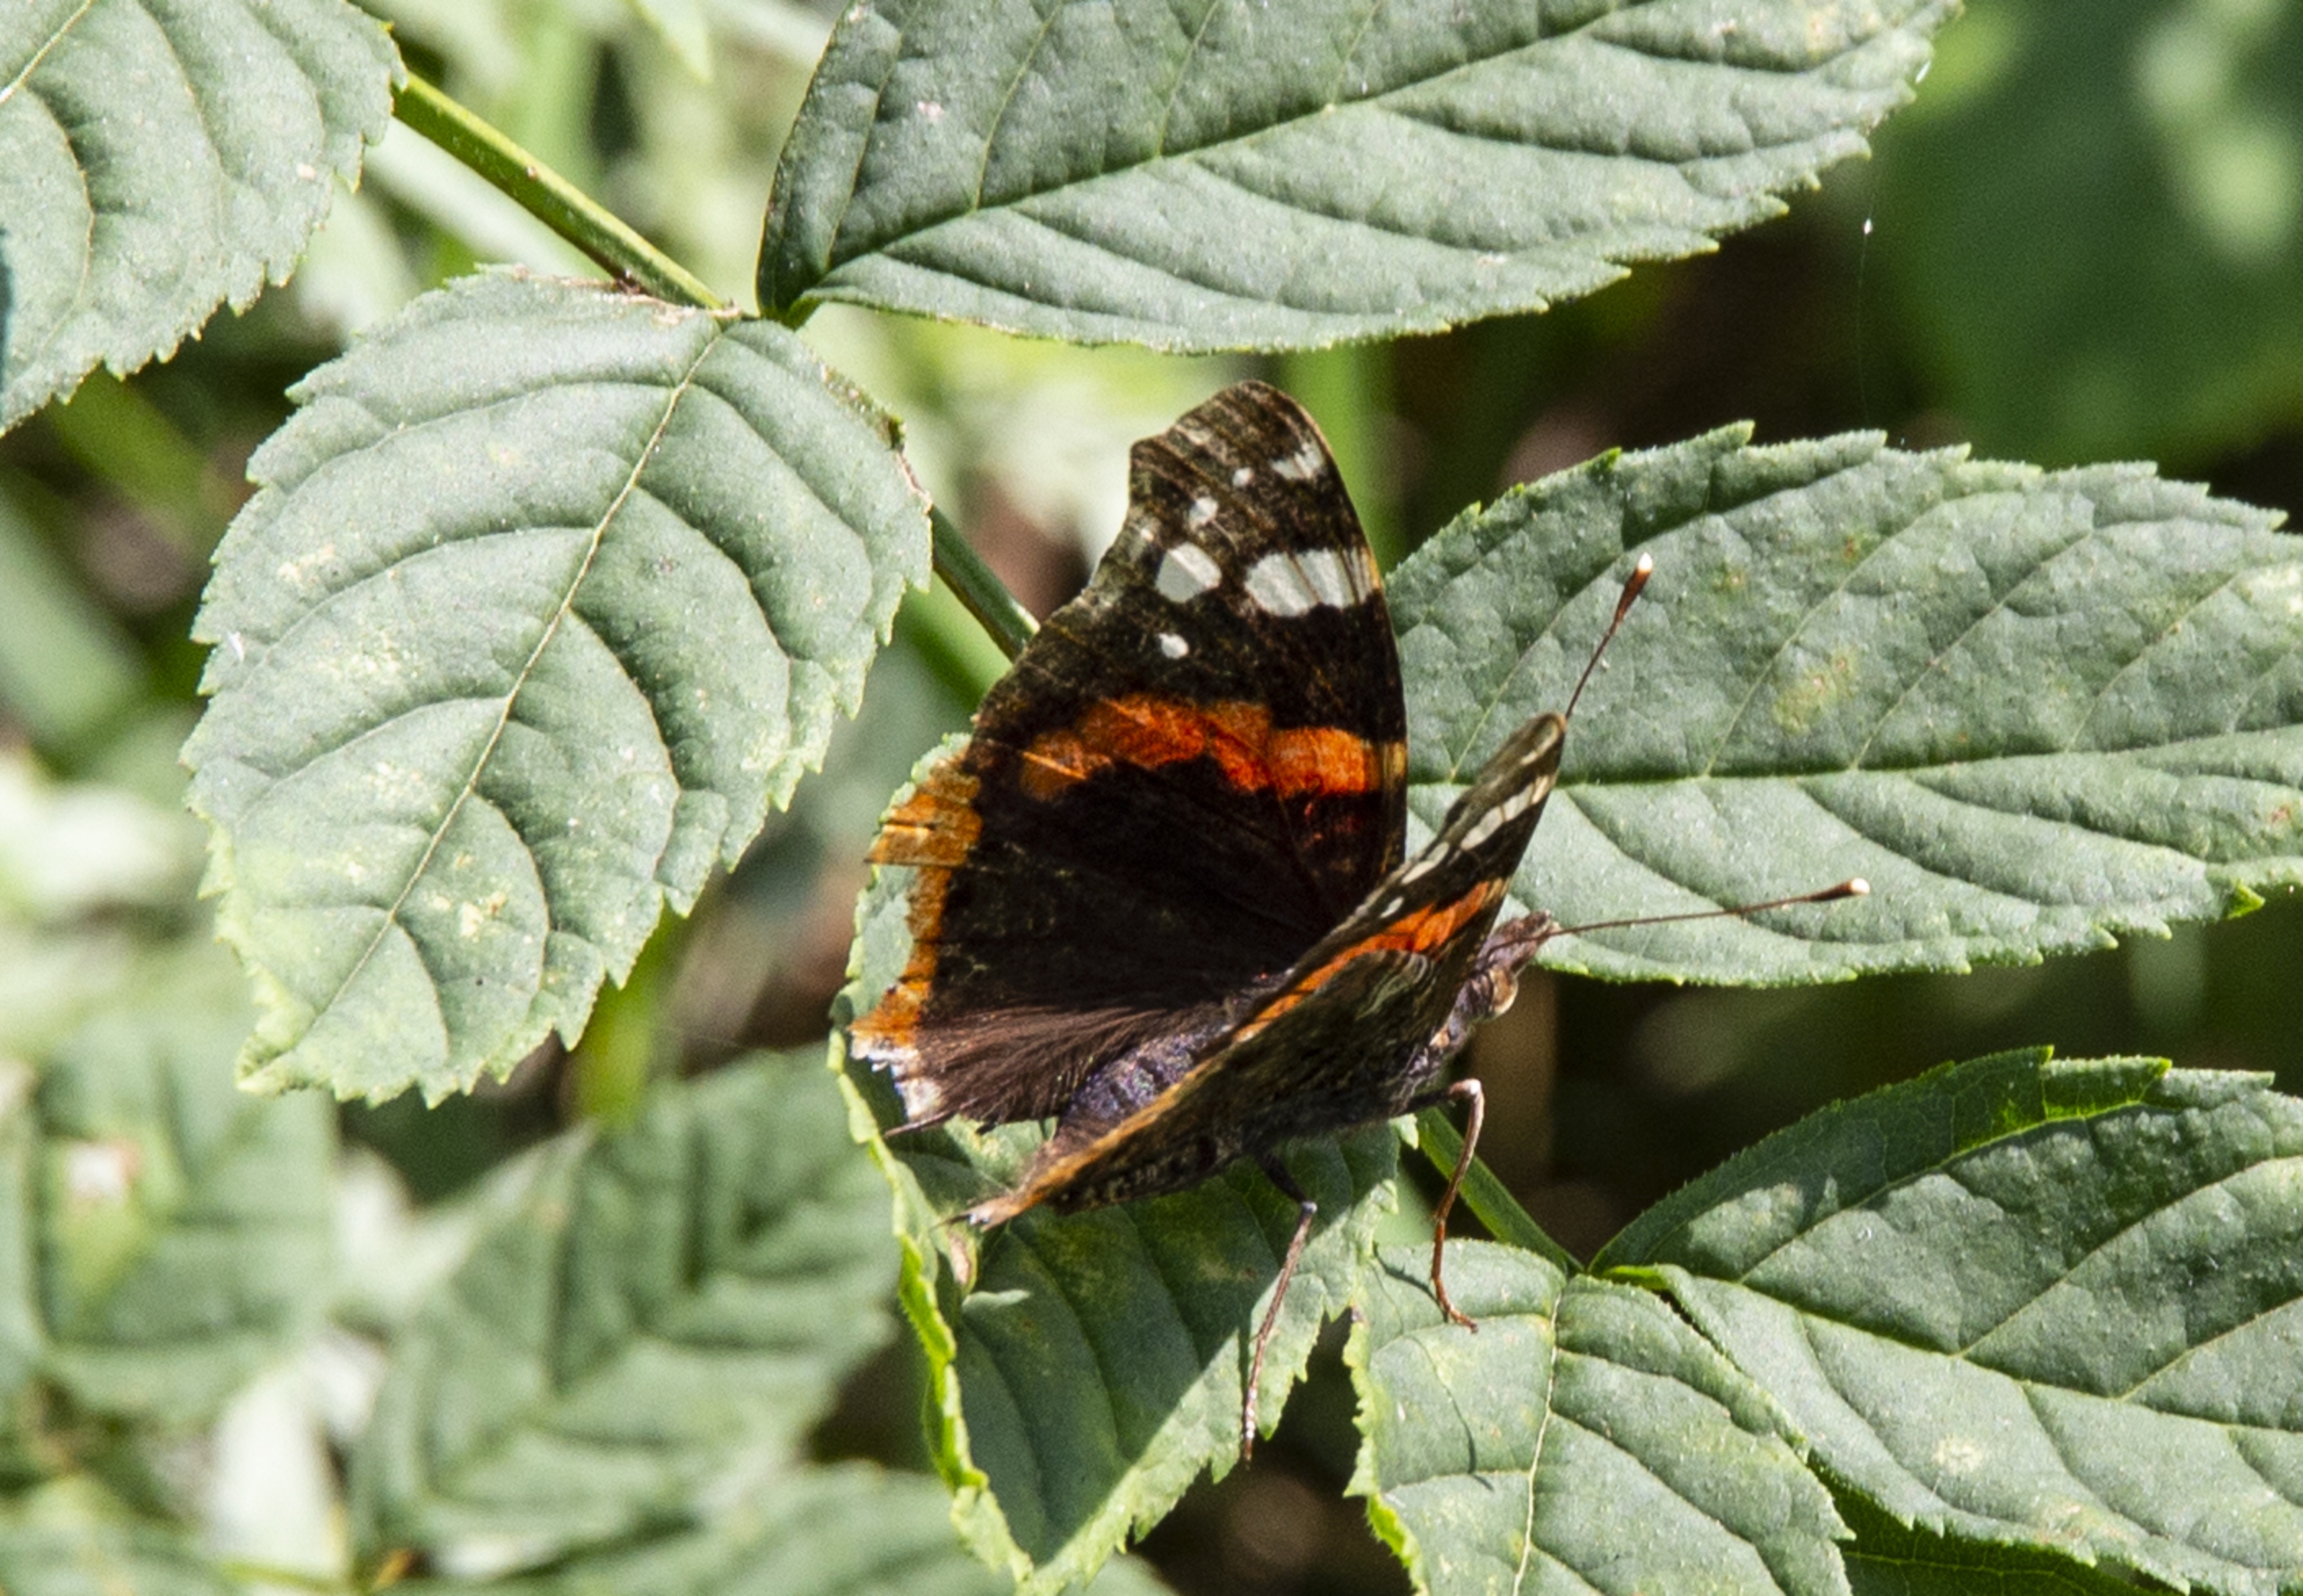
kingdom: Animalia
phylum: Arthropoda
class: Insecta
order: Lepidoptera
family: Nymphalidae
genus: Vanessa
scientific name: Vanessa atalanta
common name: Admiral
